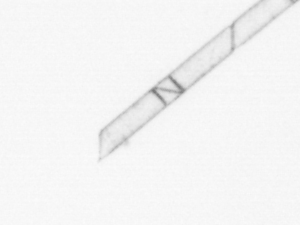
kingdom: Chromista
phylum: Ochrophyta
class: Bacillariophyceae
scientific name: Bacillariophyceae
